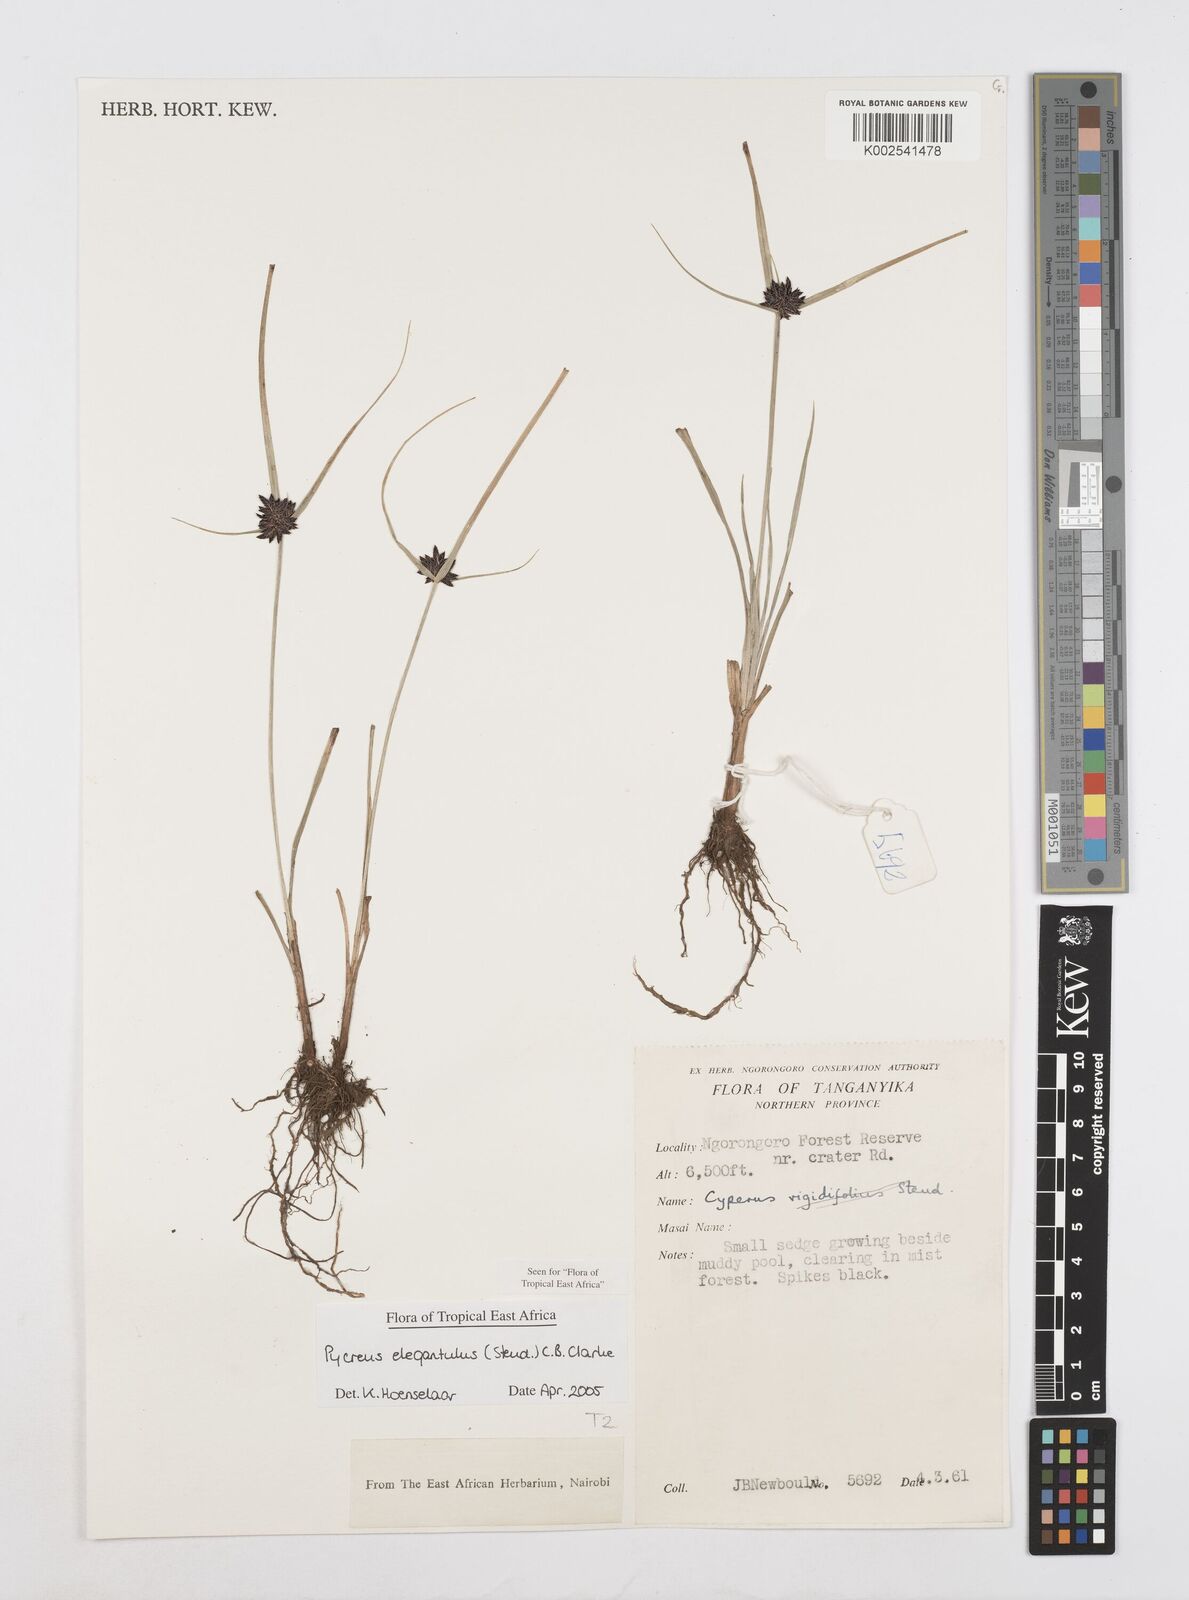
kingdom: Plantae
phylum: Tracheophyta
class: Liliopsida
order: Poales
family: Cyperaceae
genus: Cyperus
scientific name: Cyperus elegantulus
